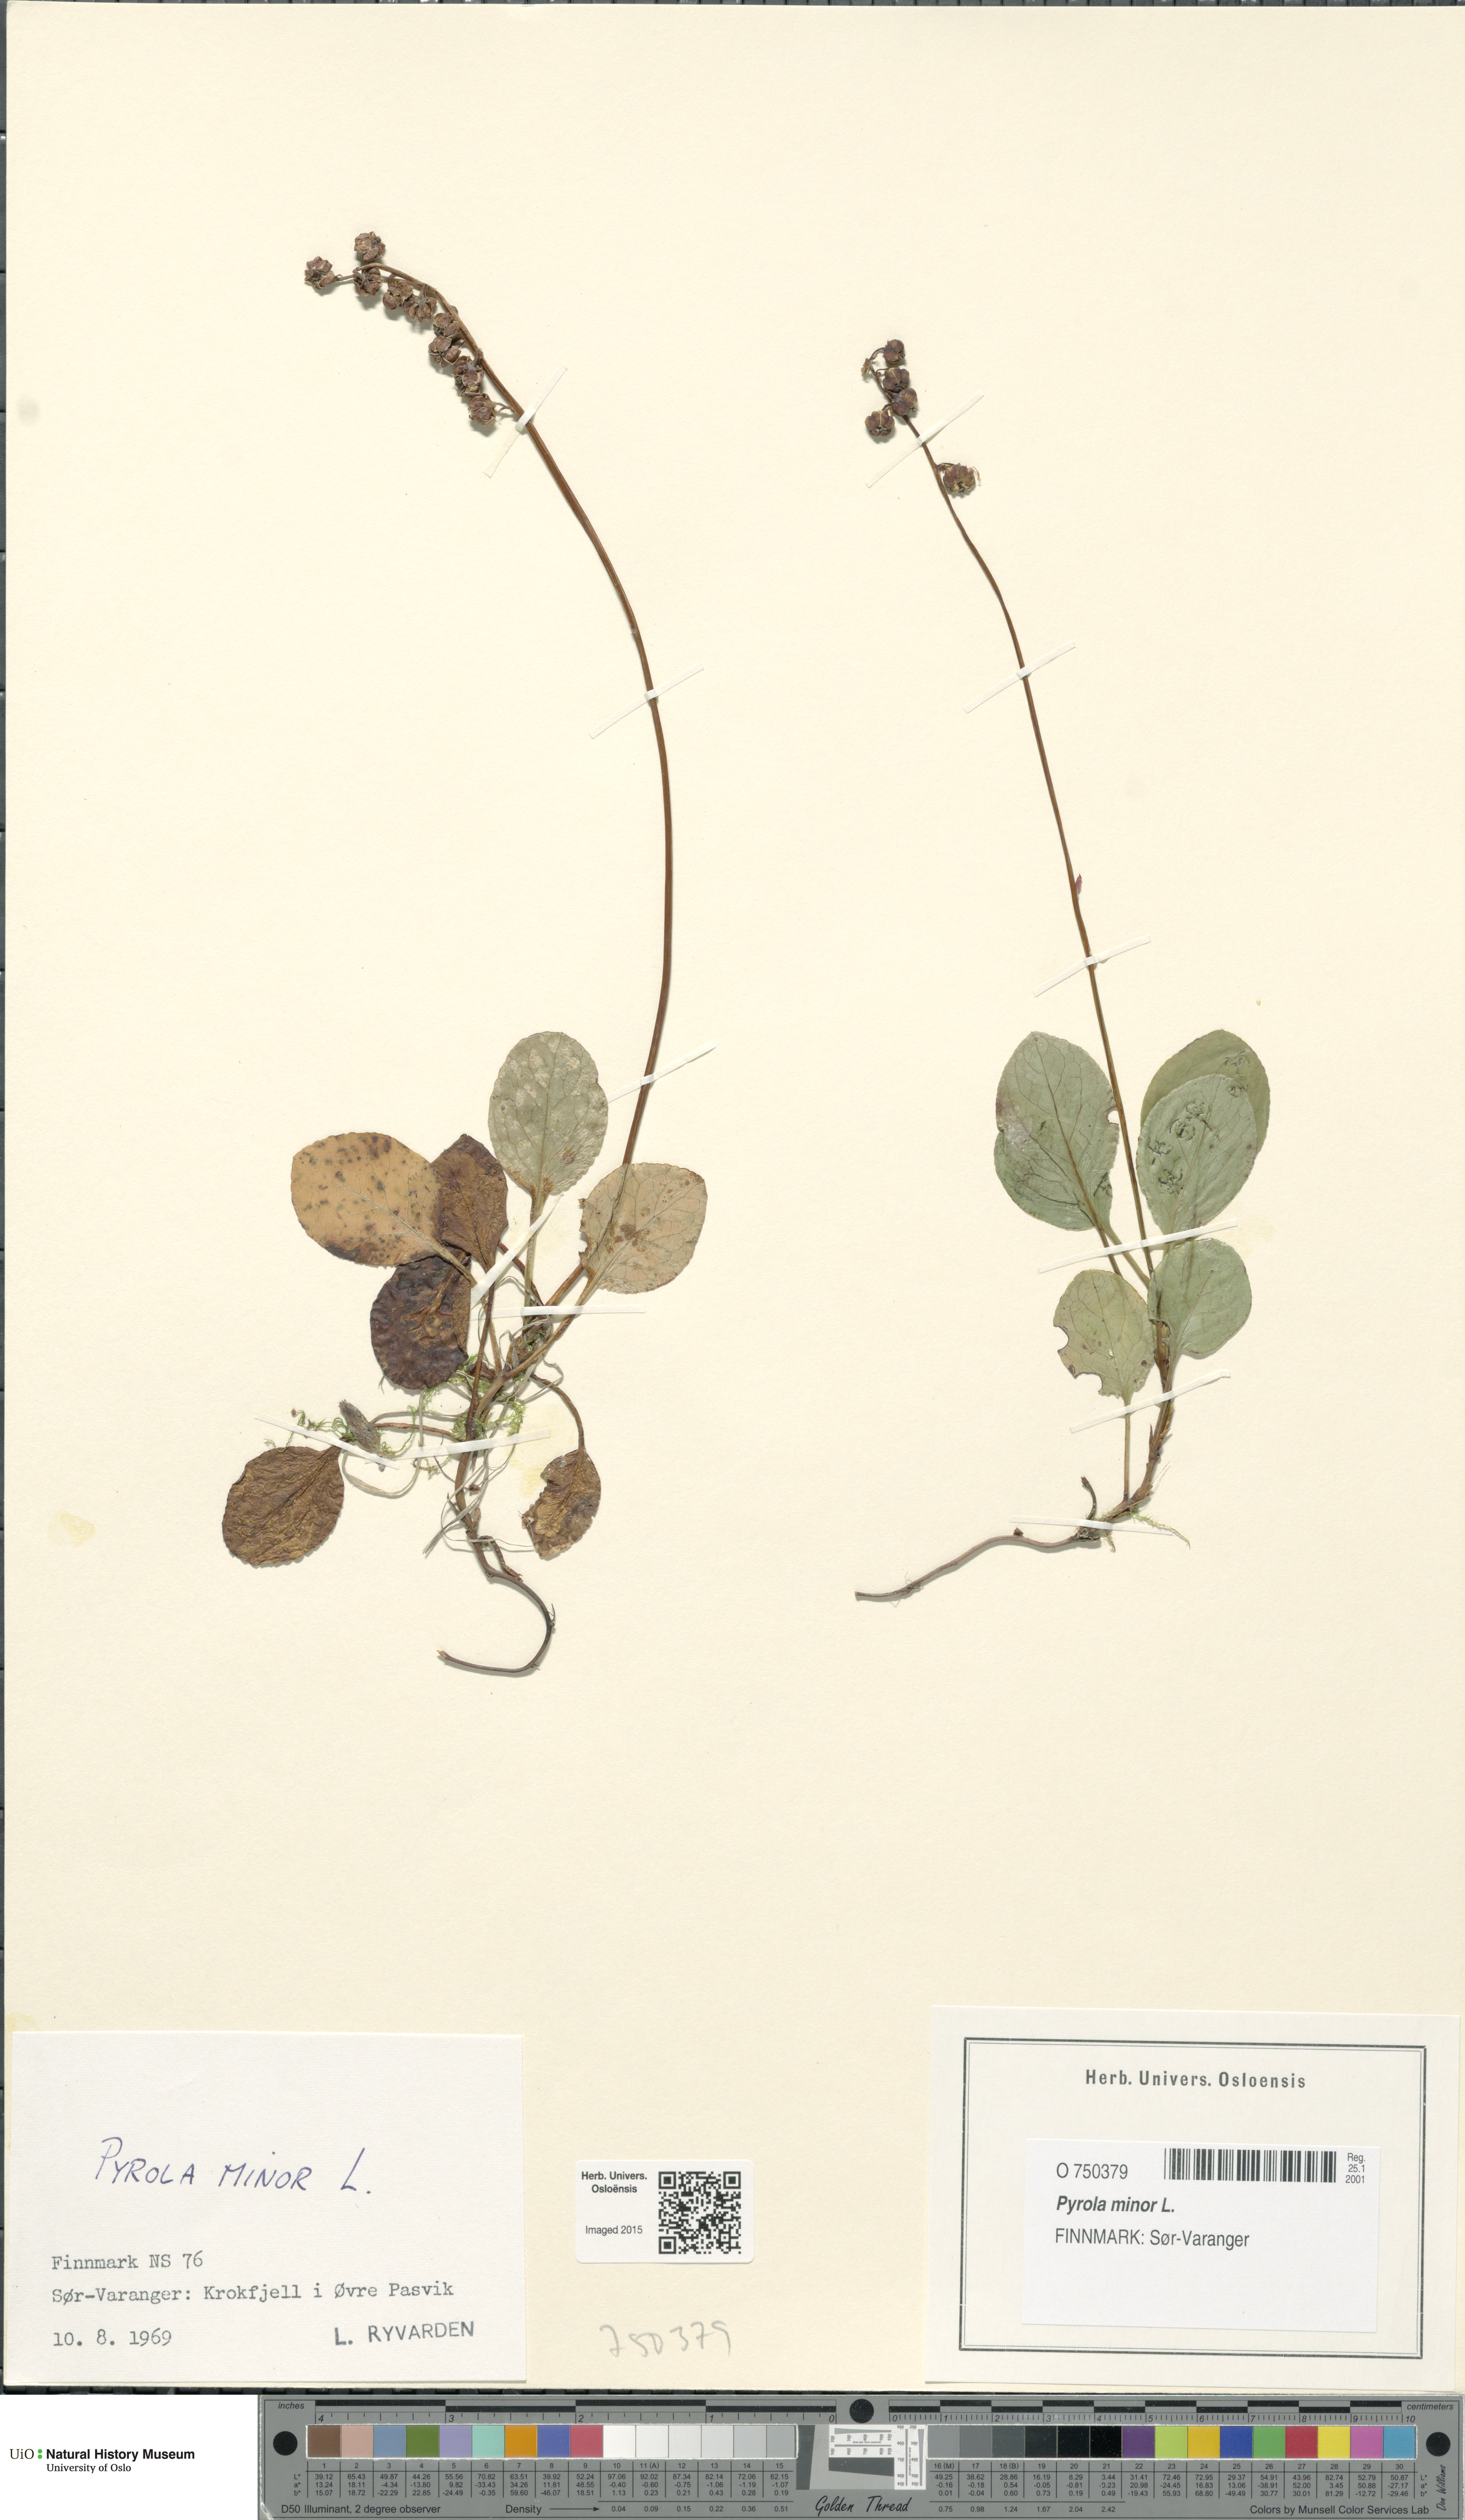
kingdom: Plantae
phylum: Tracheophyta
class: Magnoliopsida
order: Ericales
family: Ericaceae
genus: Pyrola
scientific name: Pyrola minor
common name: Common wintergreen
